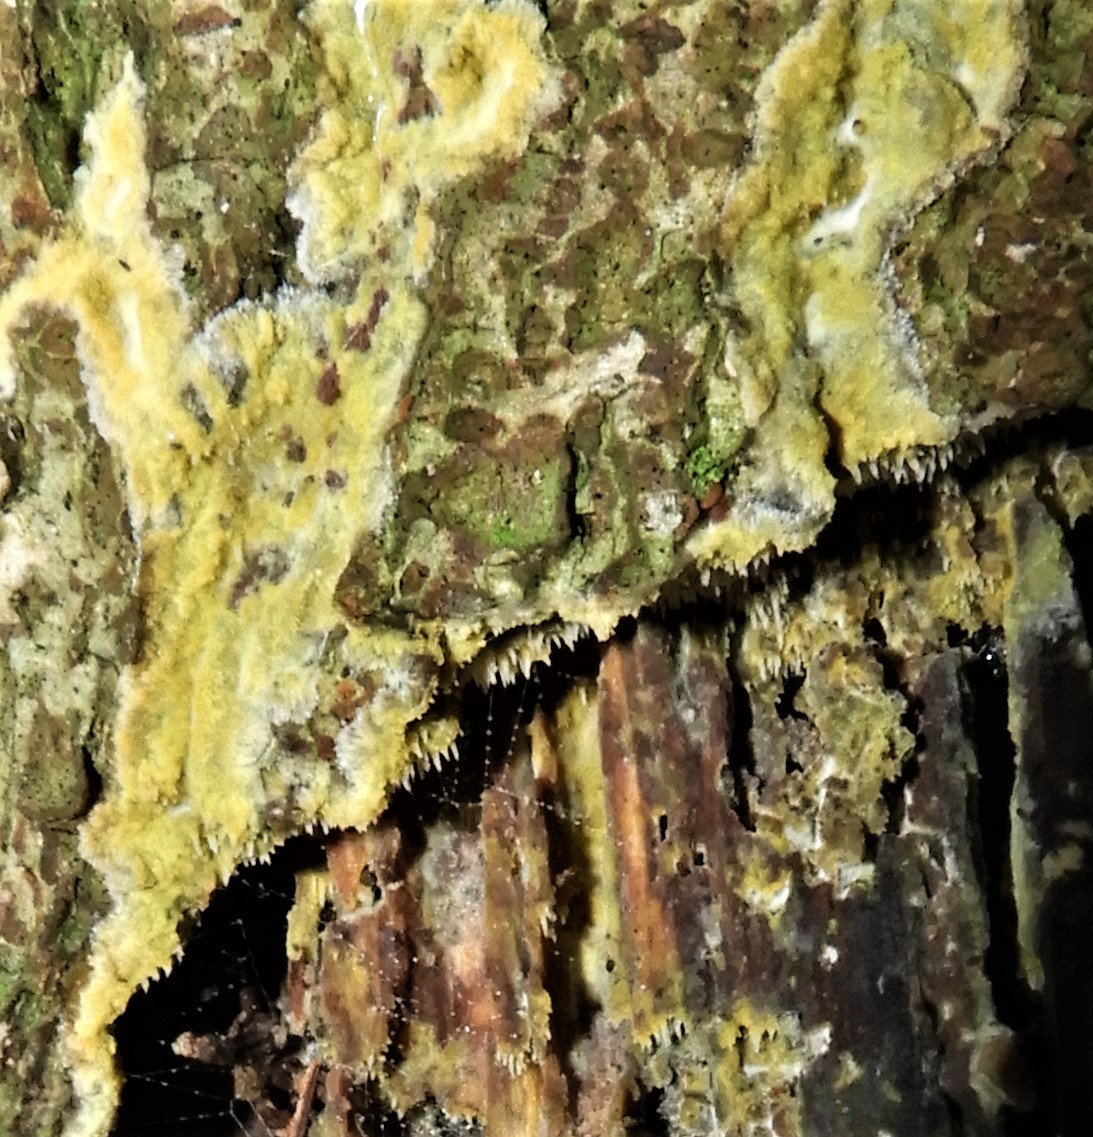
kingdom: Fungi
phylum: Basidiomycota
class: Agaricomycetes
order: Polyporales
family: Meruliaceae
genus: Mycoacia
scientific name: Mycoacia
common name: vokspig
